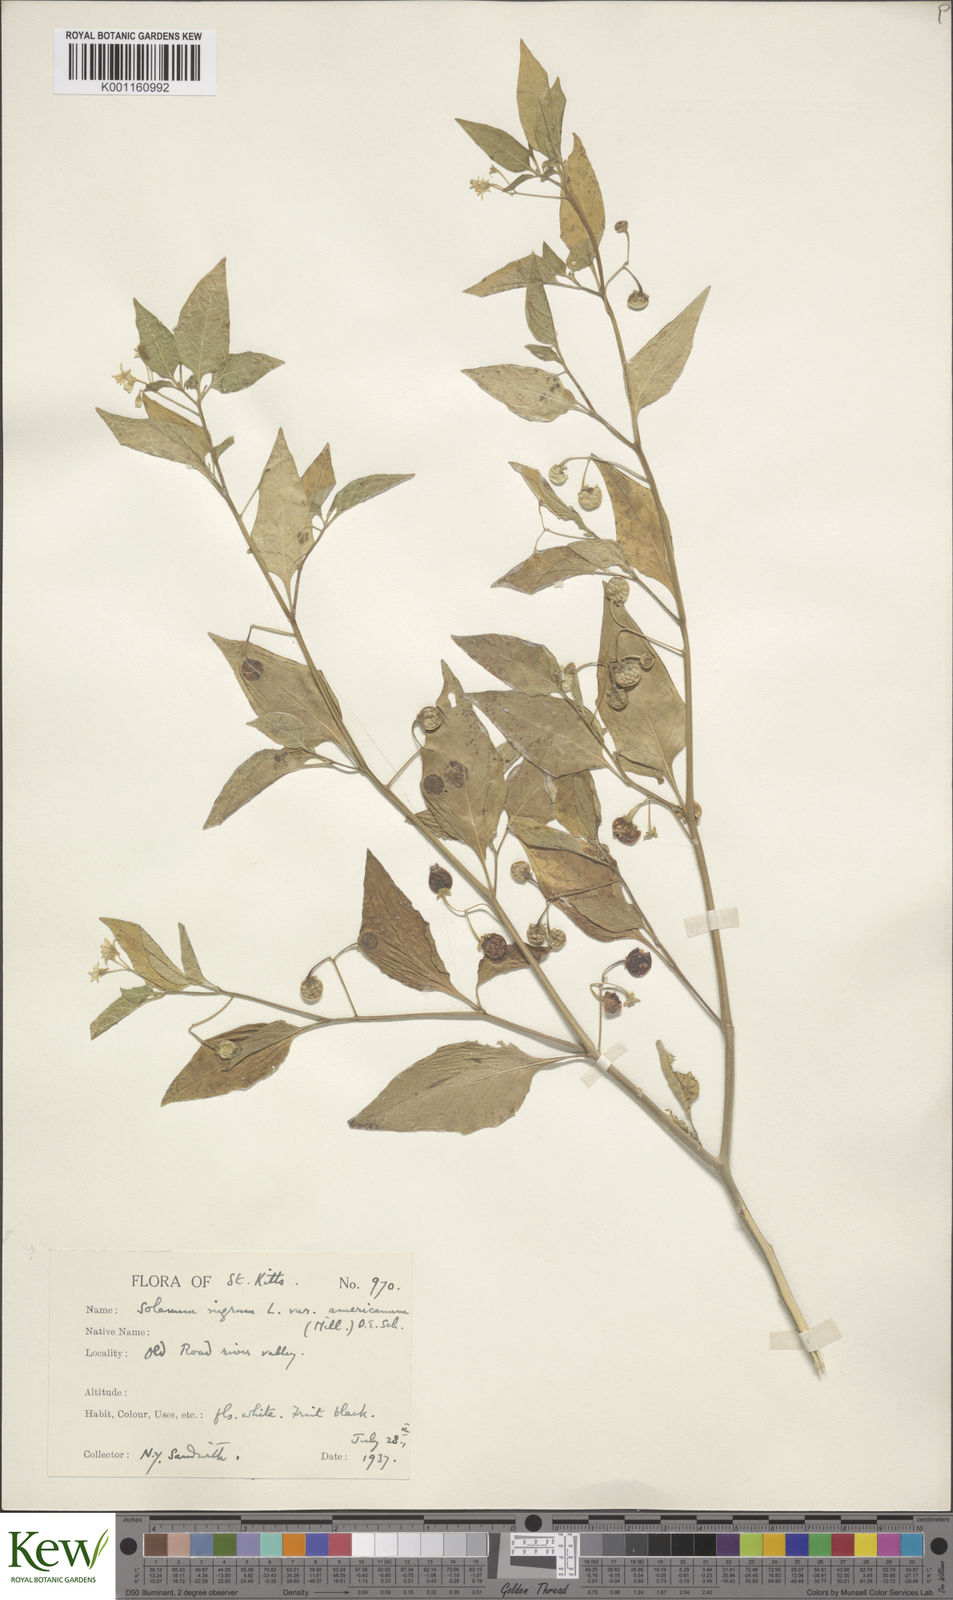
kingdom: Plantae
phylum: Tracheophyta
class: Magnoliopsida
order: Solanales
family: Solanaceae
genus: Solanum
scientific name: Solanum americanum
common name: American black nightshade
